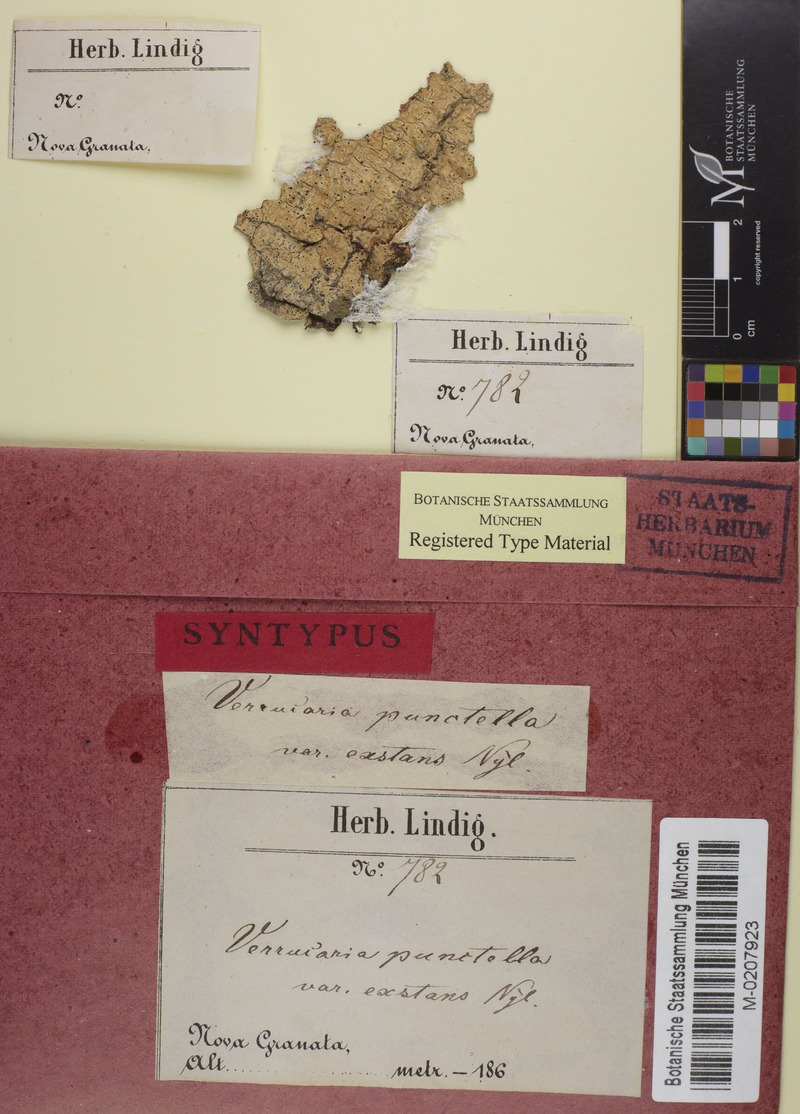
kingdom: Fungi
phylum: Ascomycota
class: Eurotiomycetes
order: Pyrenulales
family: Pyrenulaceae
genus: Pyrenula
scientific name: Pyrenula pinguis
